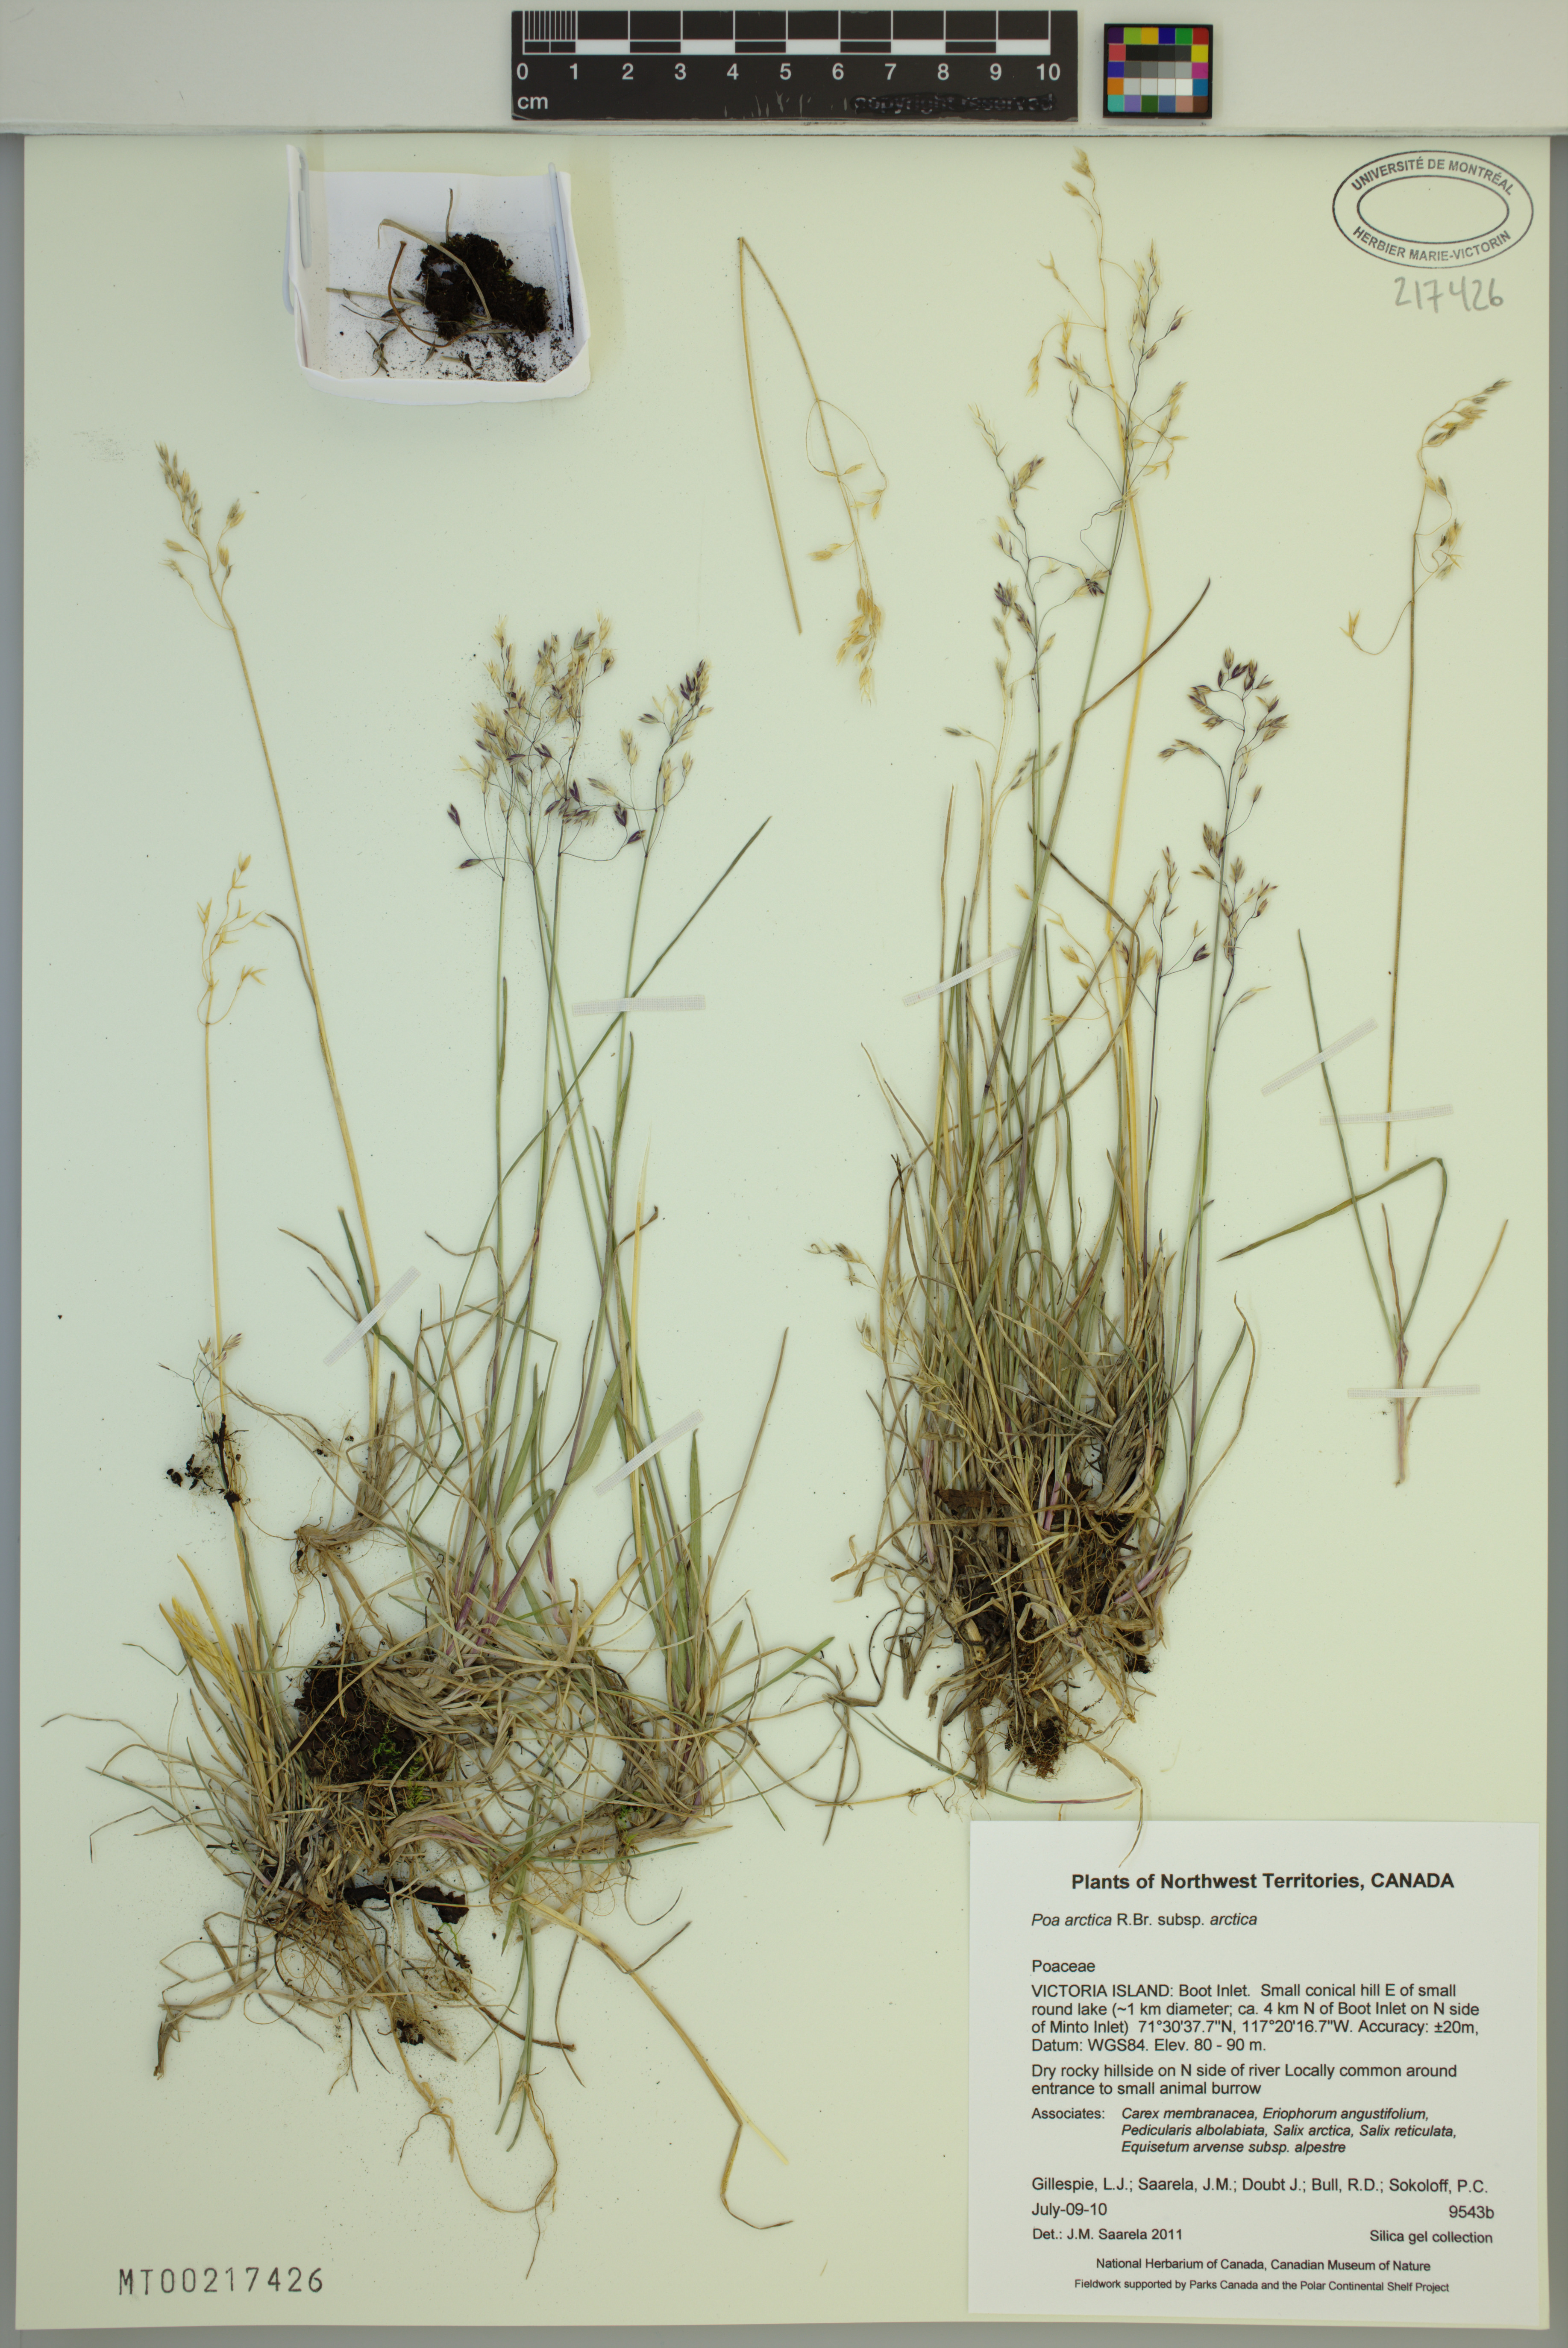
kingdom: Plantae
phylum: Tracheophyta
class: Liliopsida
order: Poales
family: Poaceae
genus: Poa
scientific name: Poa arctica
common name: Arctic bluegrass
